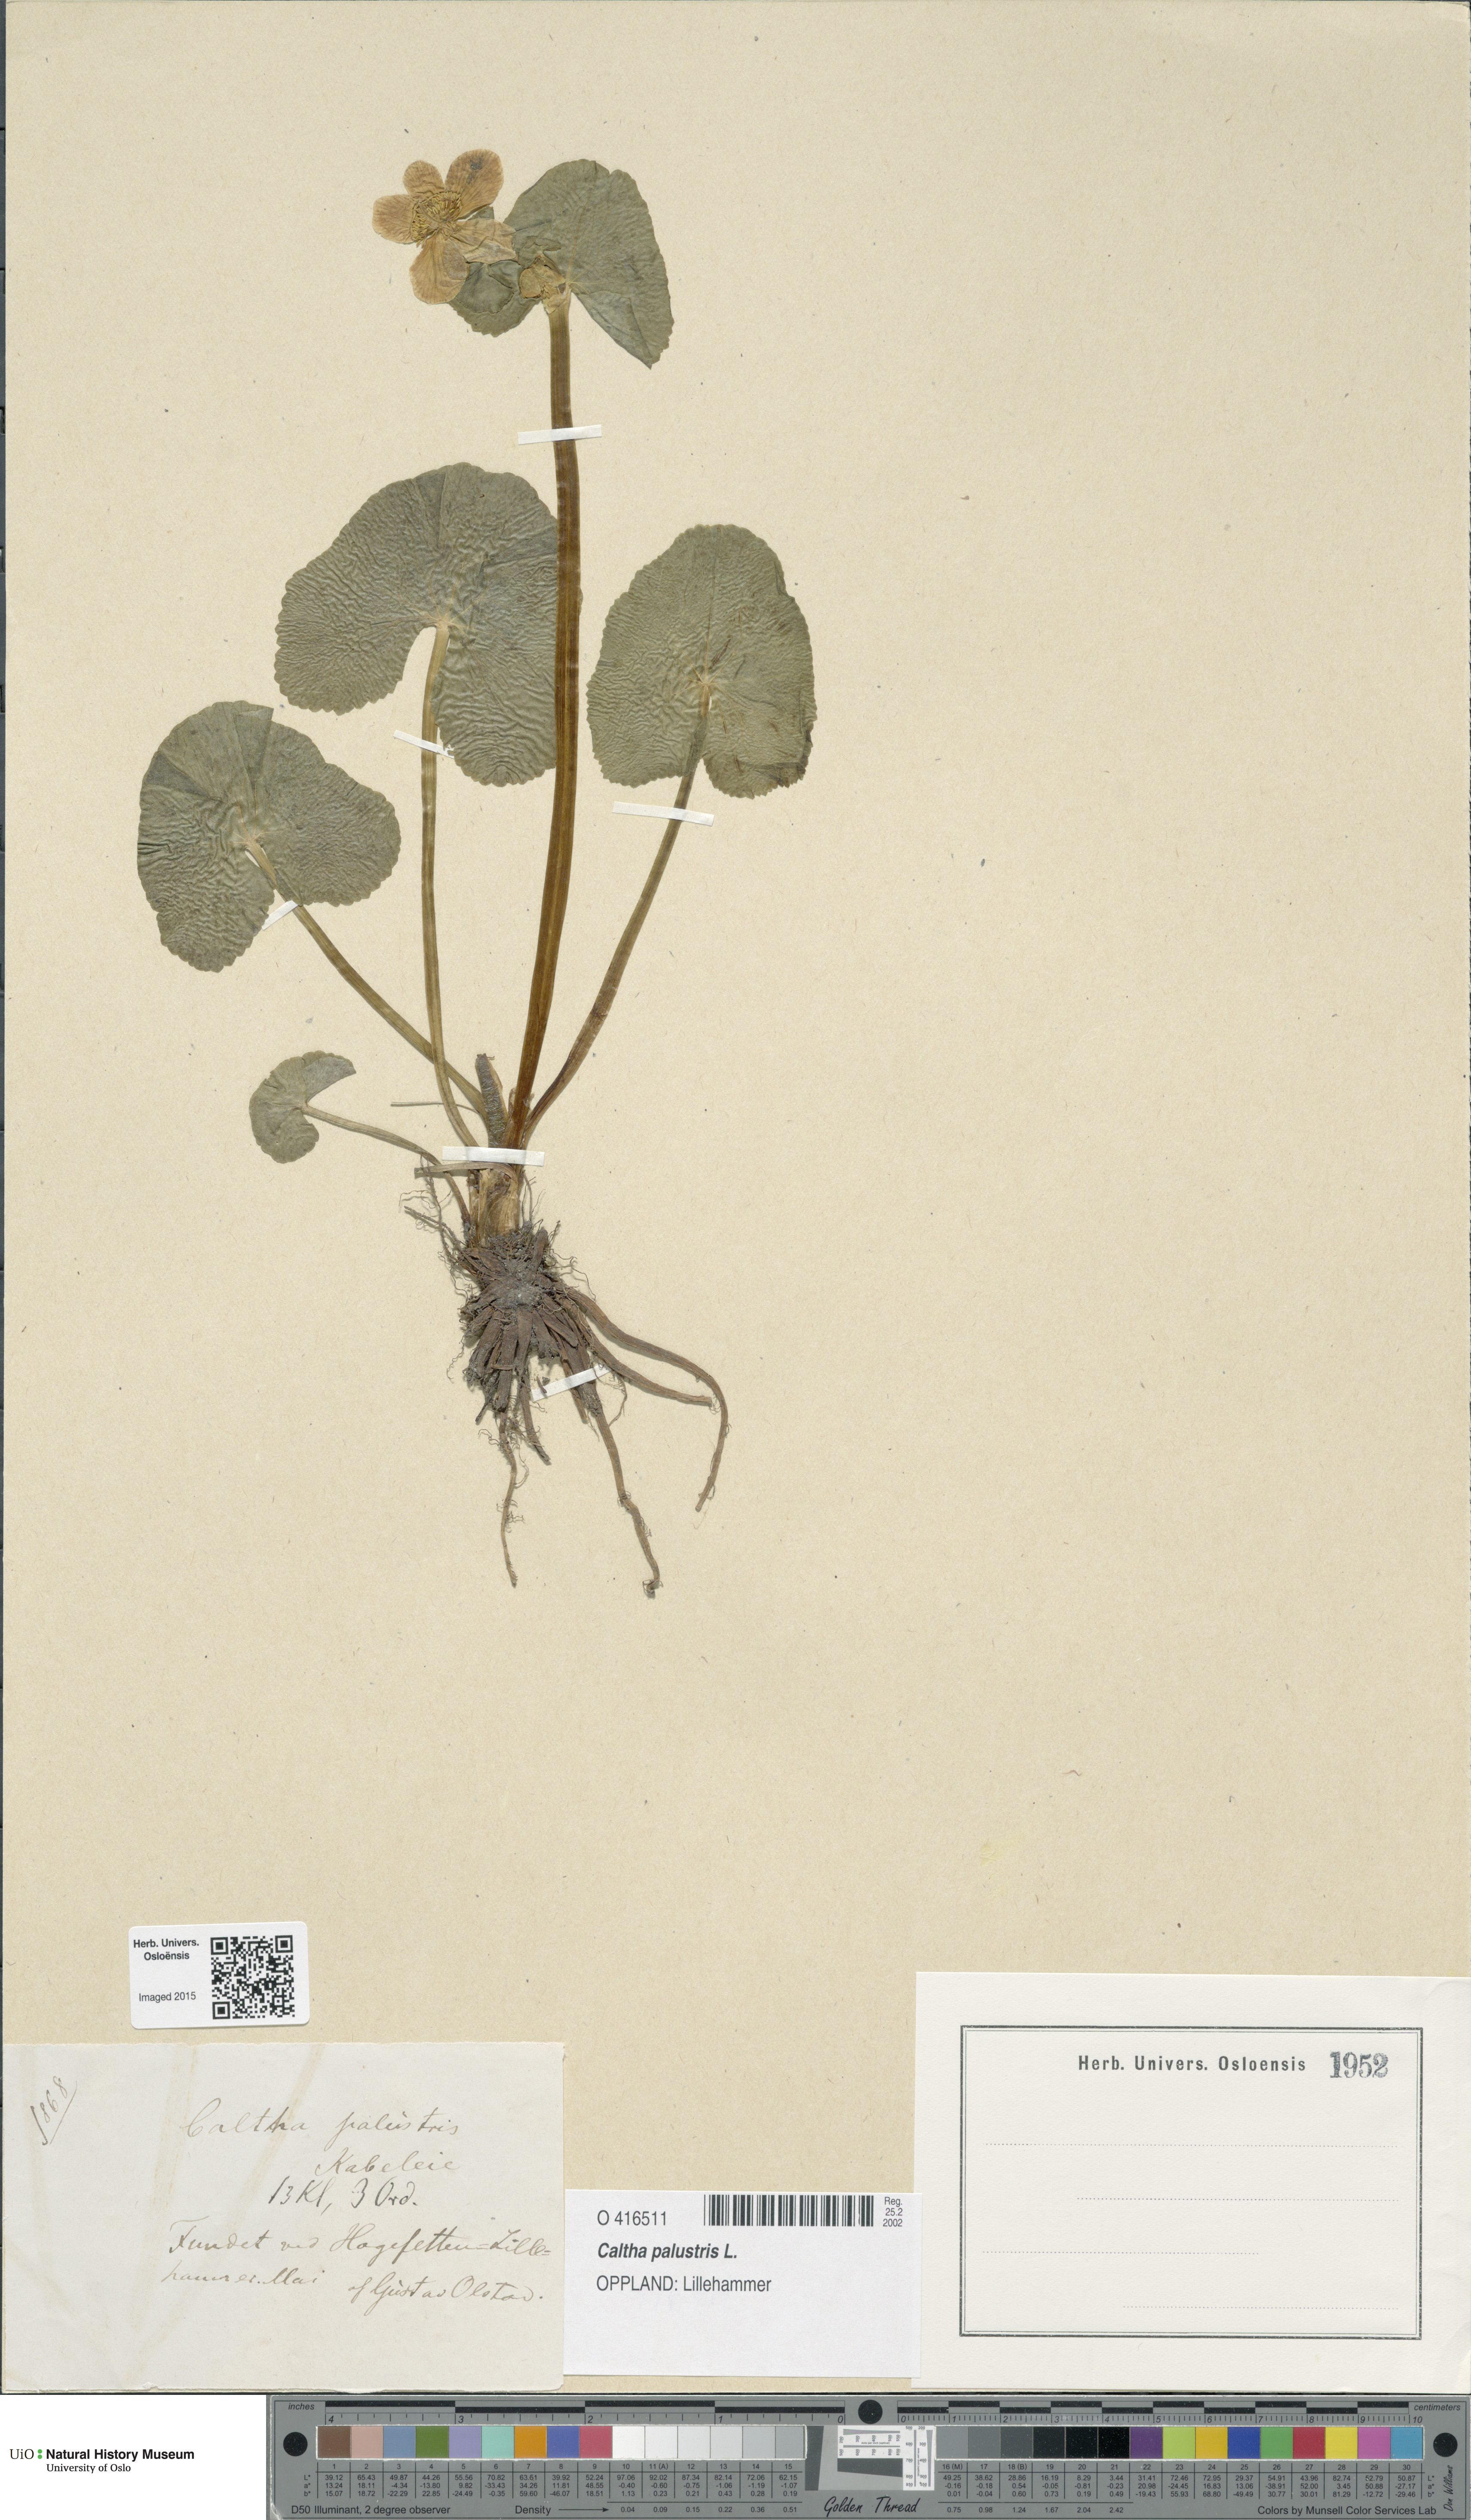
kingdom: Plantae
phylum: Tracheophyta
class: Magnoliopsida
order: Ranunculales
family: Ranunculaceae
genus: Caltha
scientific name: Caltha palustris
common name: Marsh marigold
